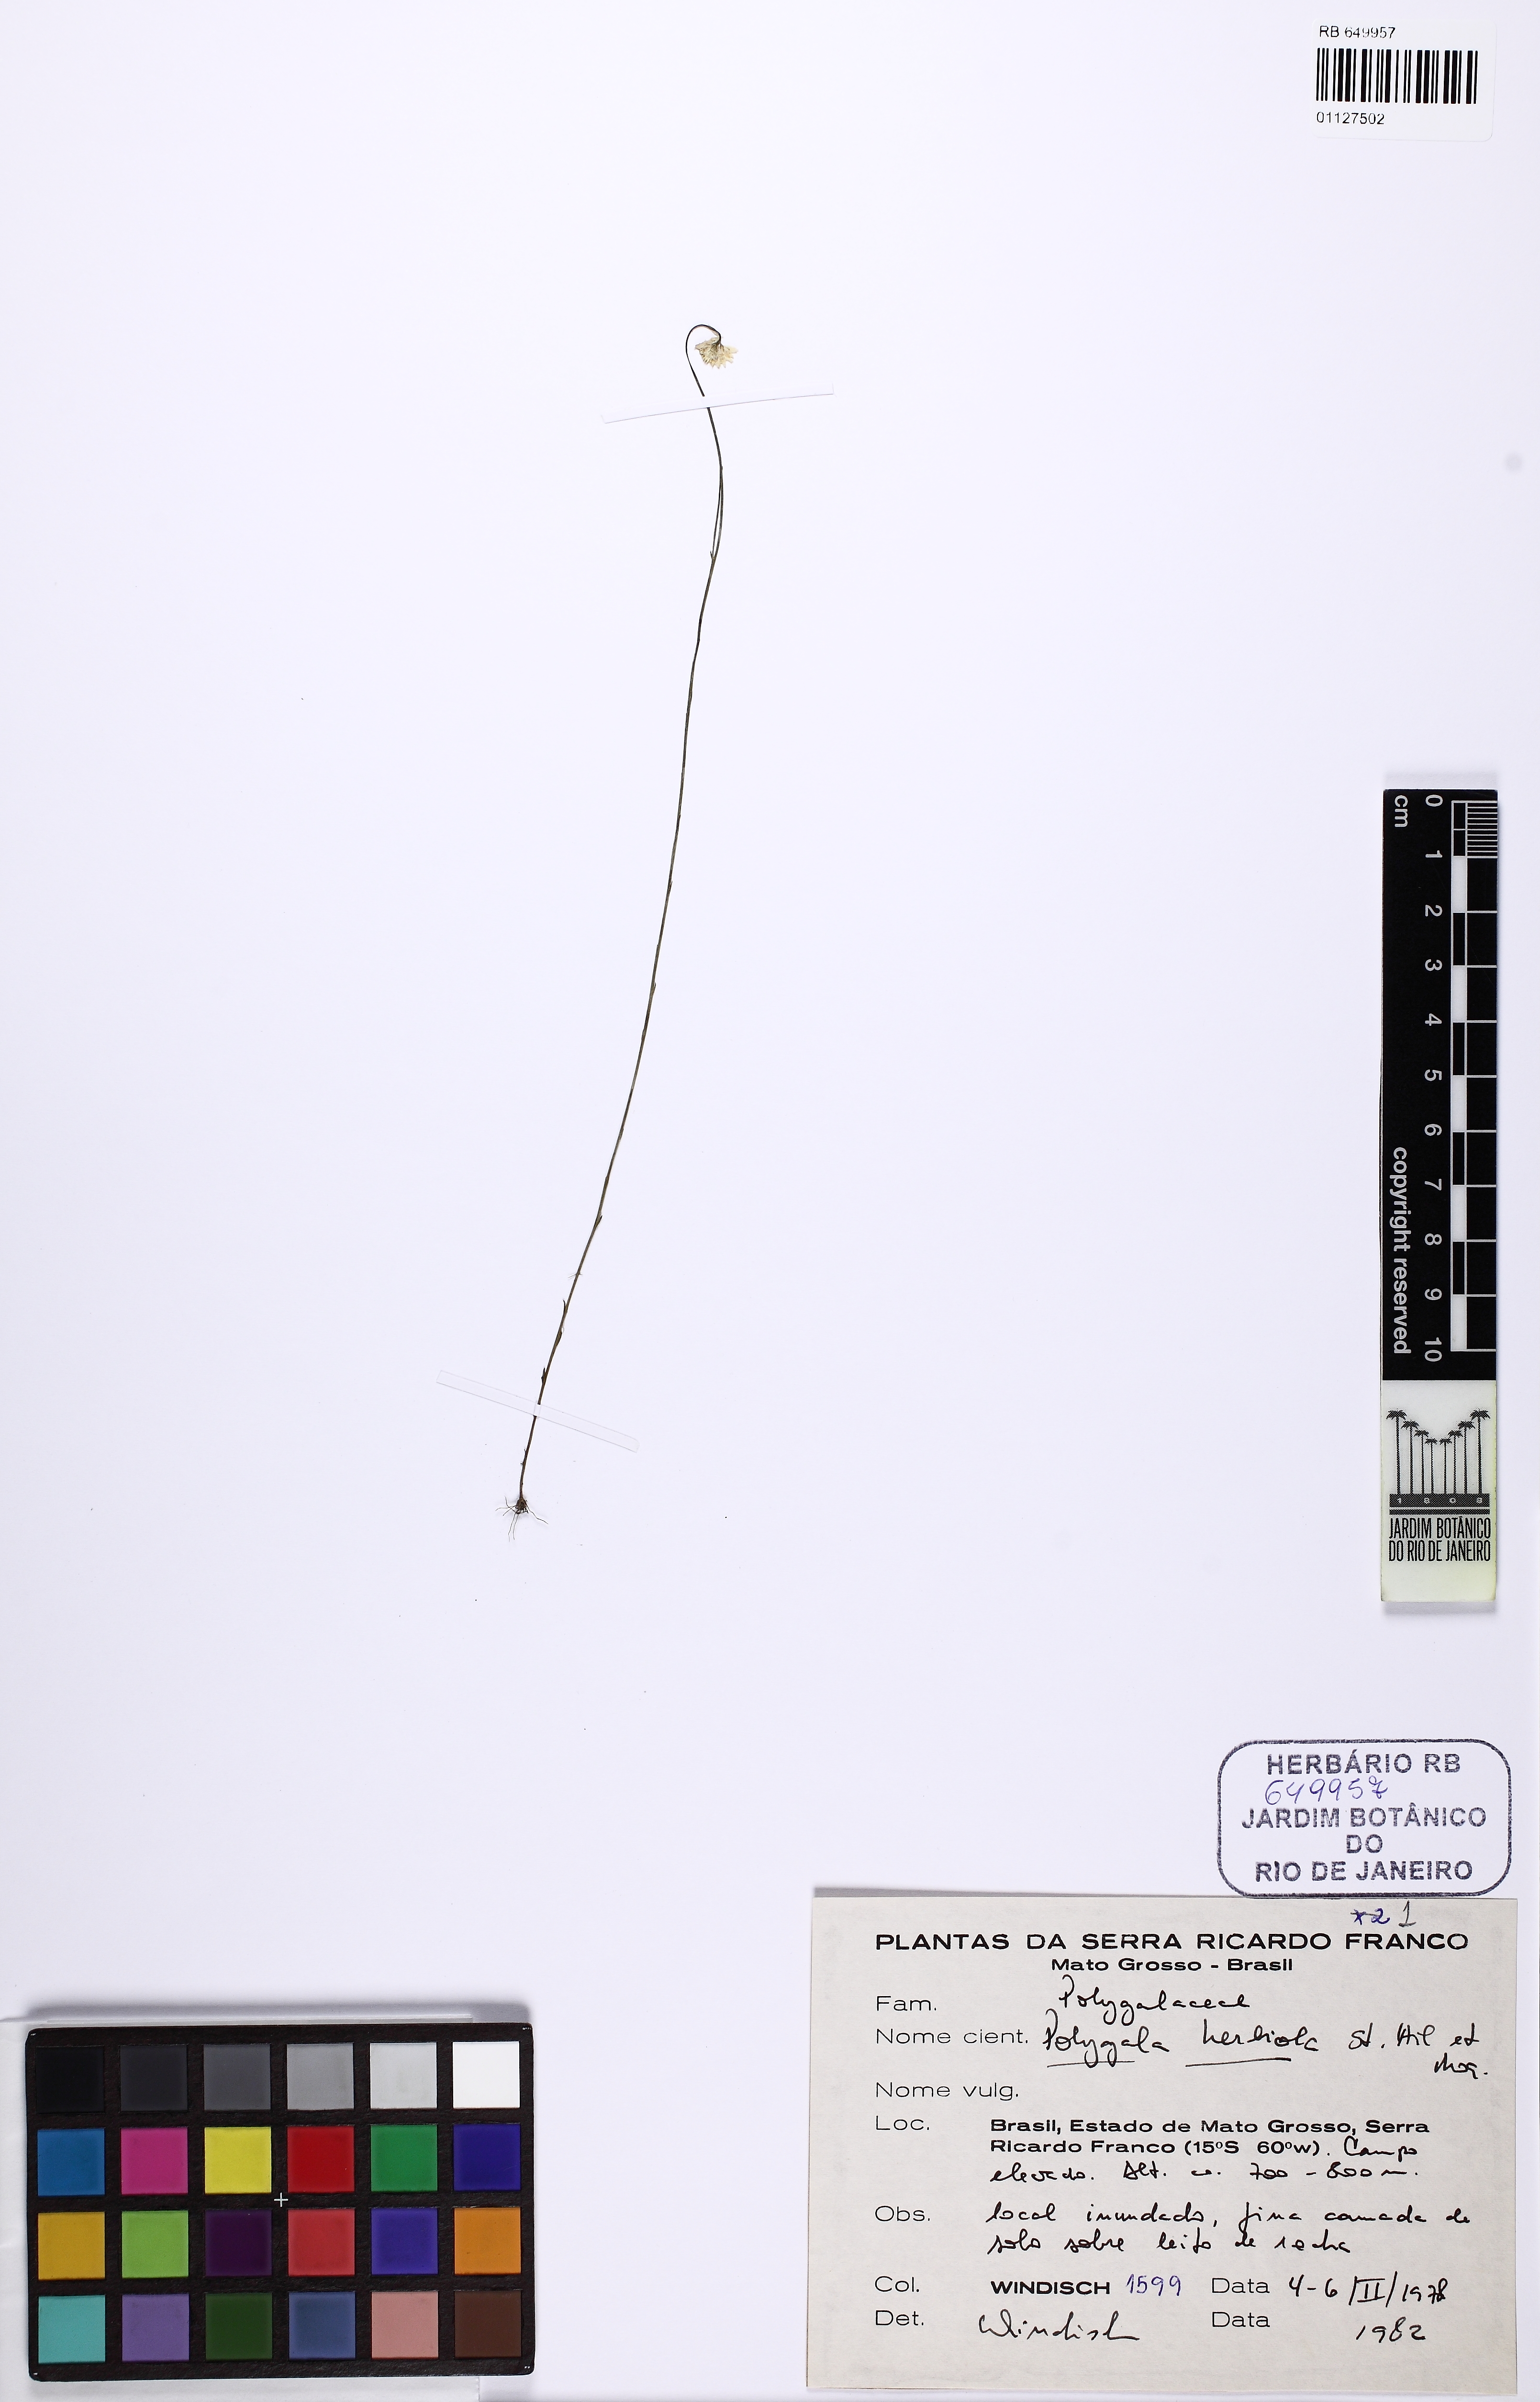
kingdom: Plantae
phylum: Tracheophyta
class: Magnoliopsida
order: Fabales
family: Polygalaceae
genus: Polygala
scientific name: Polygala chapadensis
